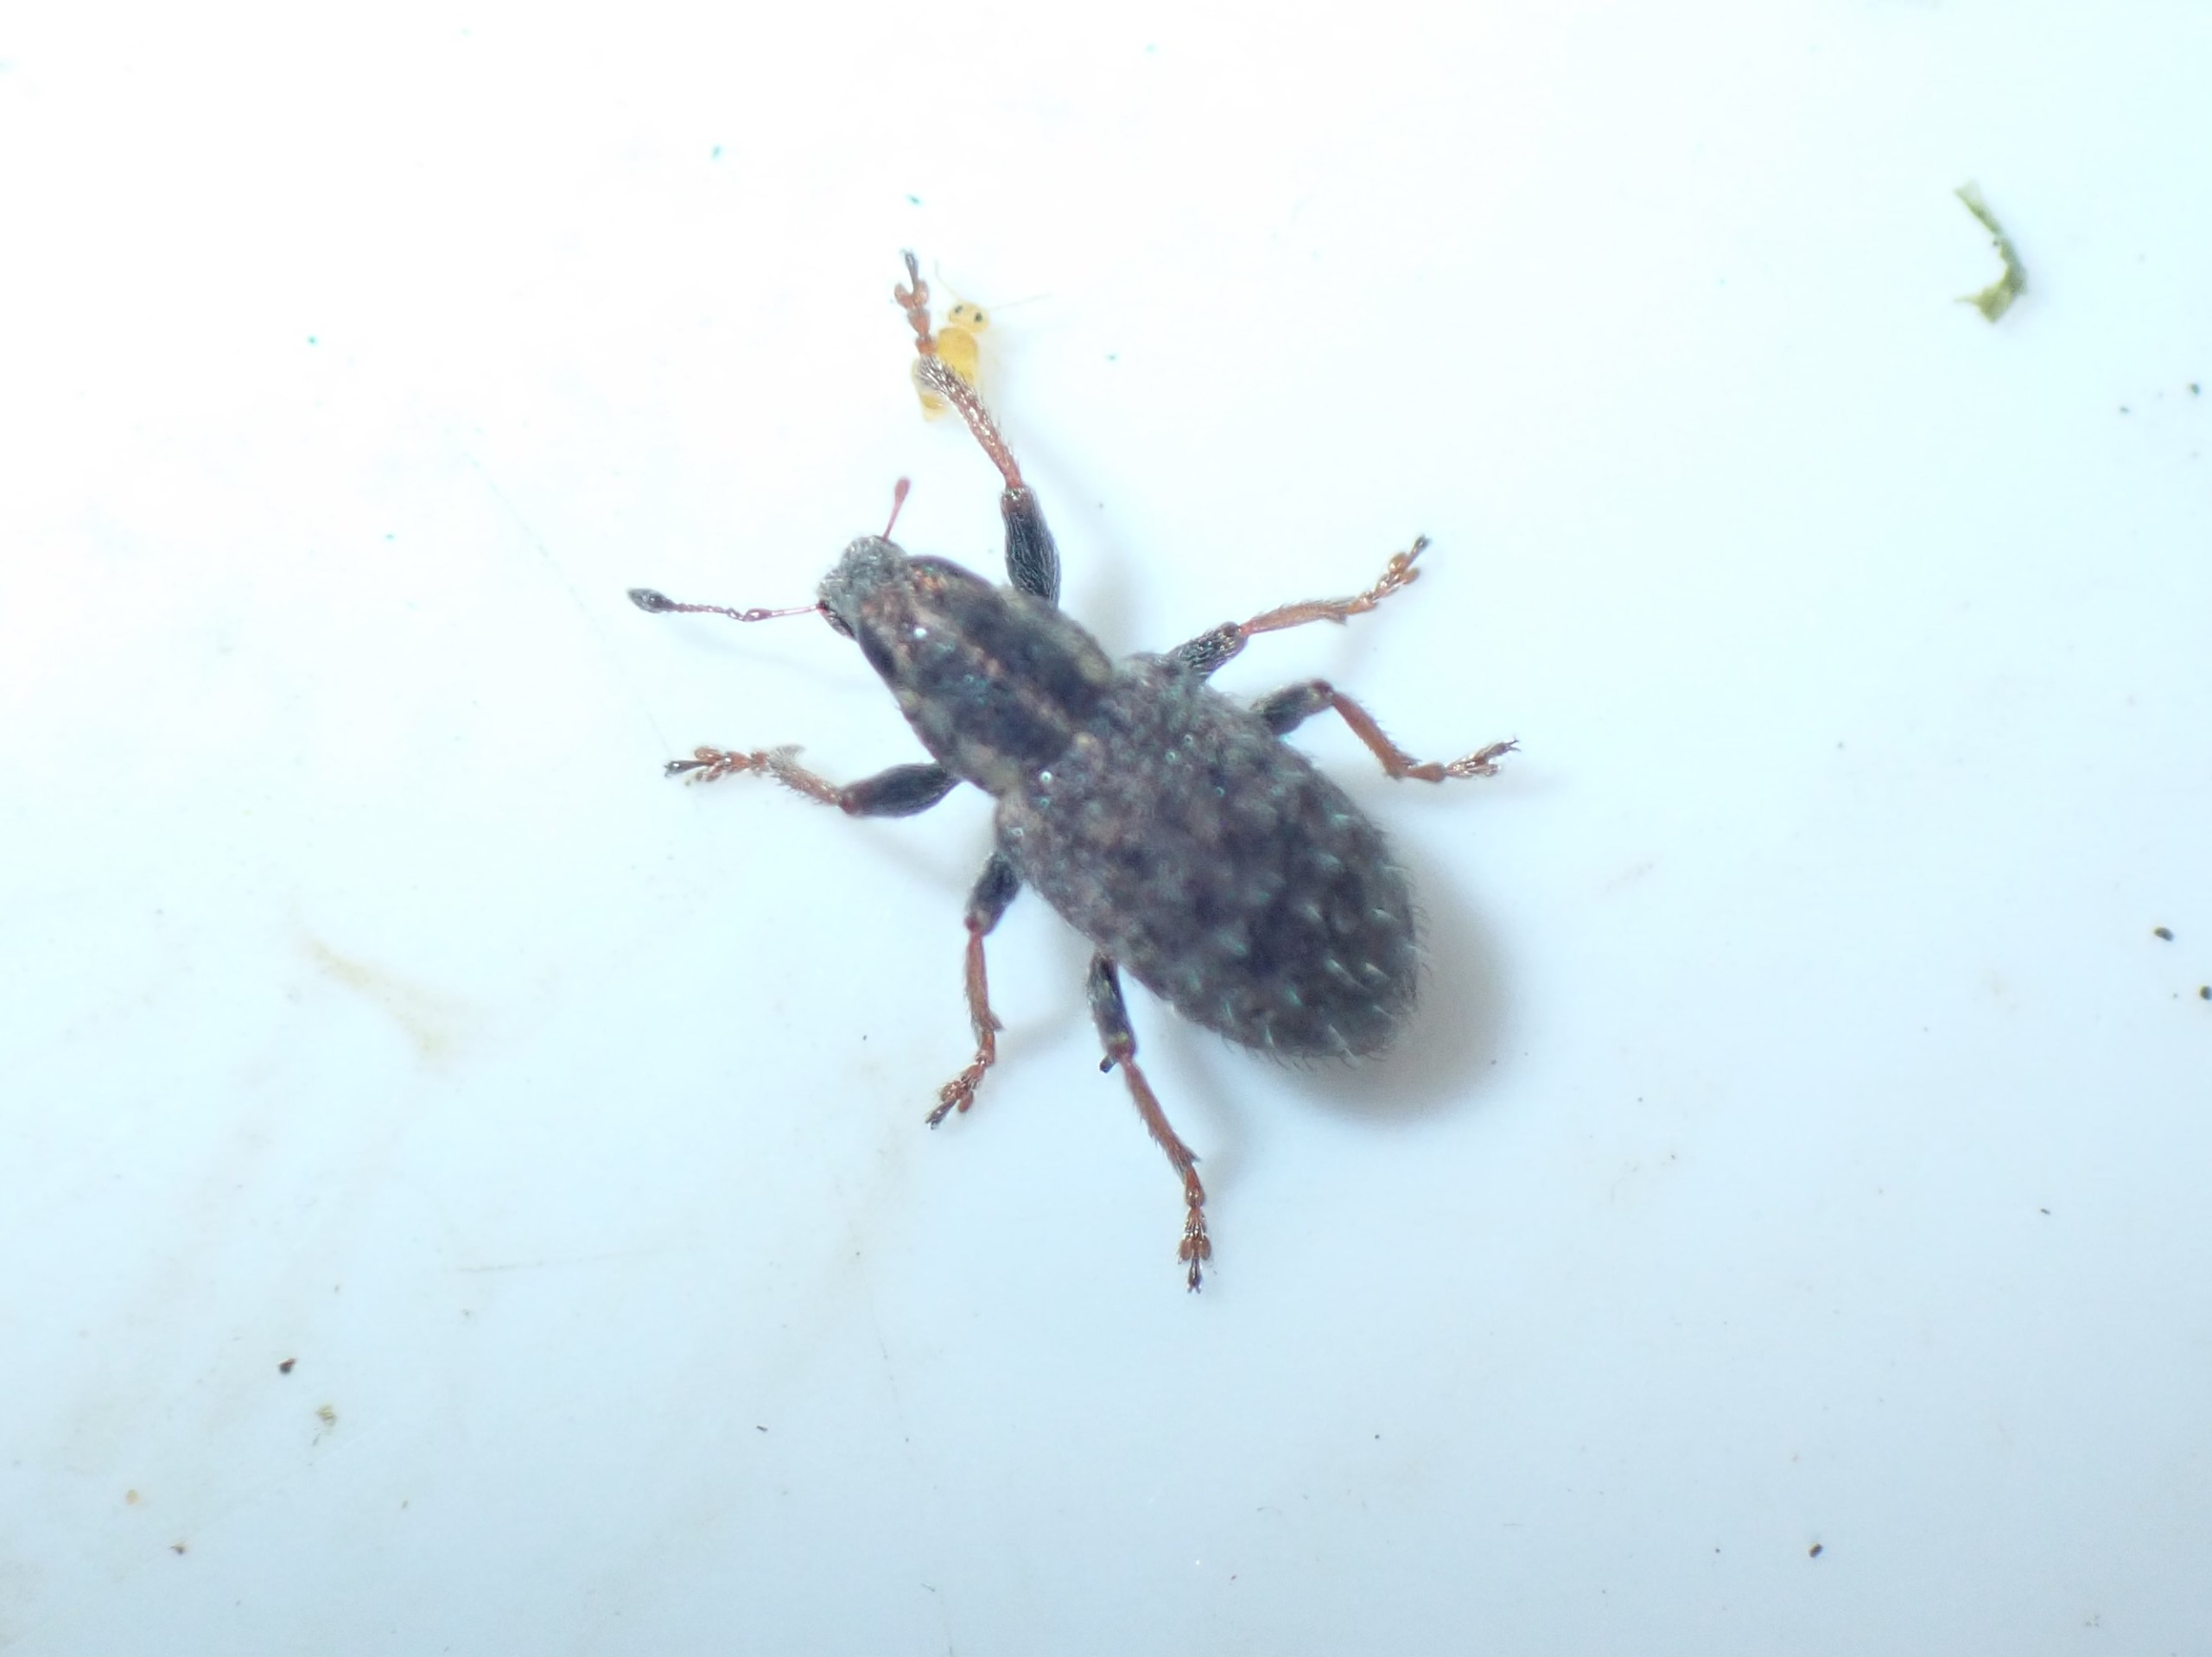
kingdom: Animalia
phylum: Arthropoda
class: Insecta
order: Coleoptera
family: Curculionidae
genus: Sitona
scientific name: Sitona hispidulus
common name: Kløverbladrandbille
